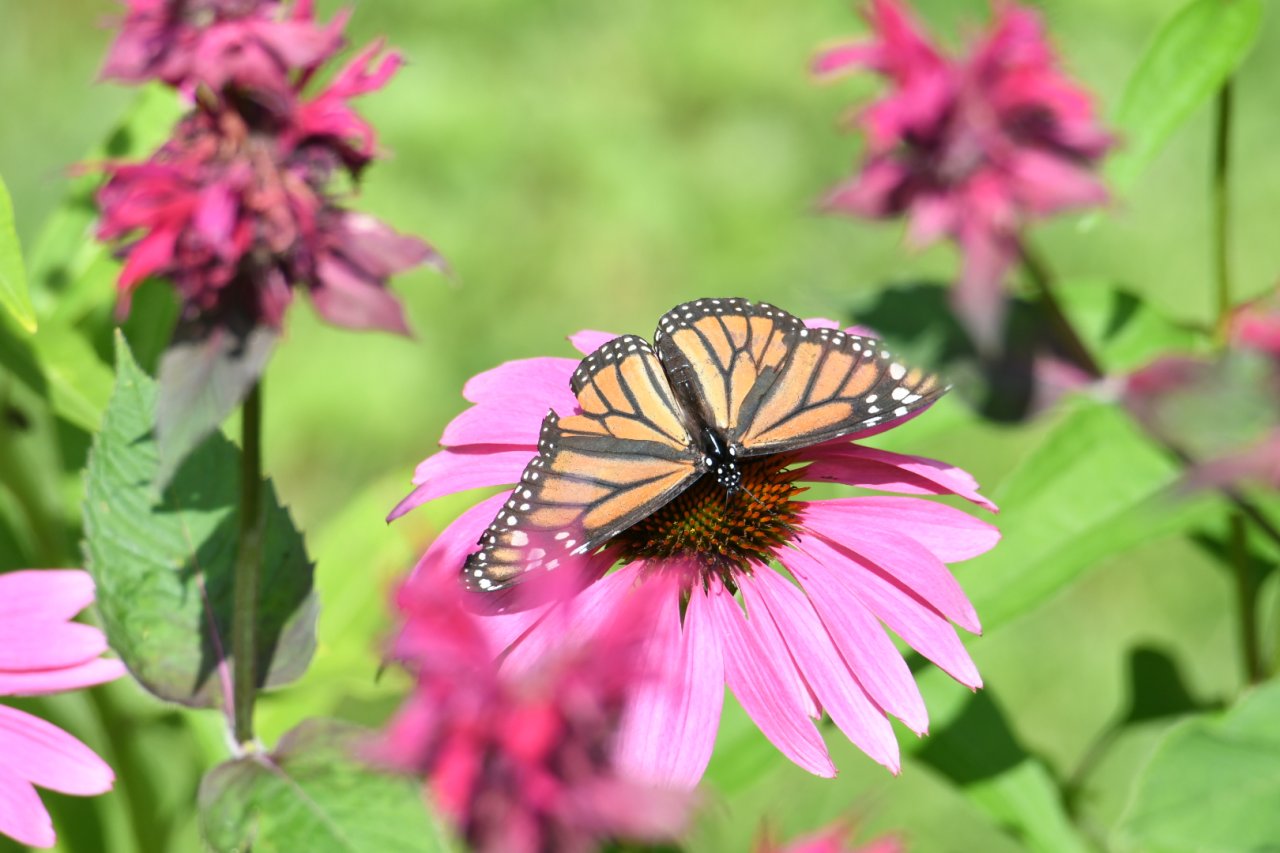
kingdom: Animalia
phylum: Arthropoda
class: Insecta
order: Lepidoptera
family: Nymphalidae
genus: Danaus
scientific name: Danaus plexippus
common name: Monarch
